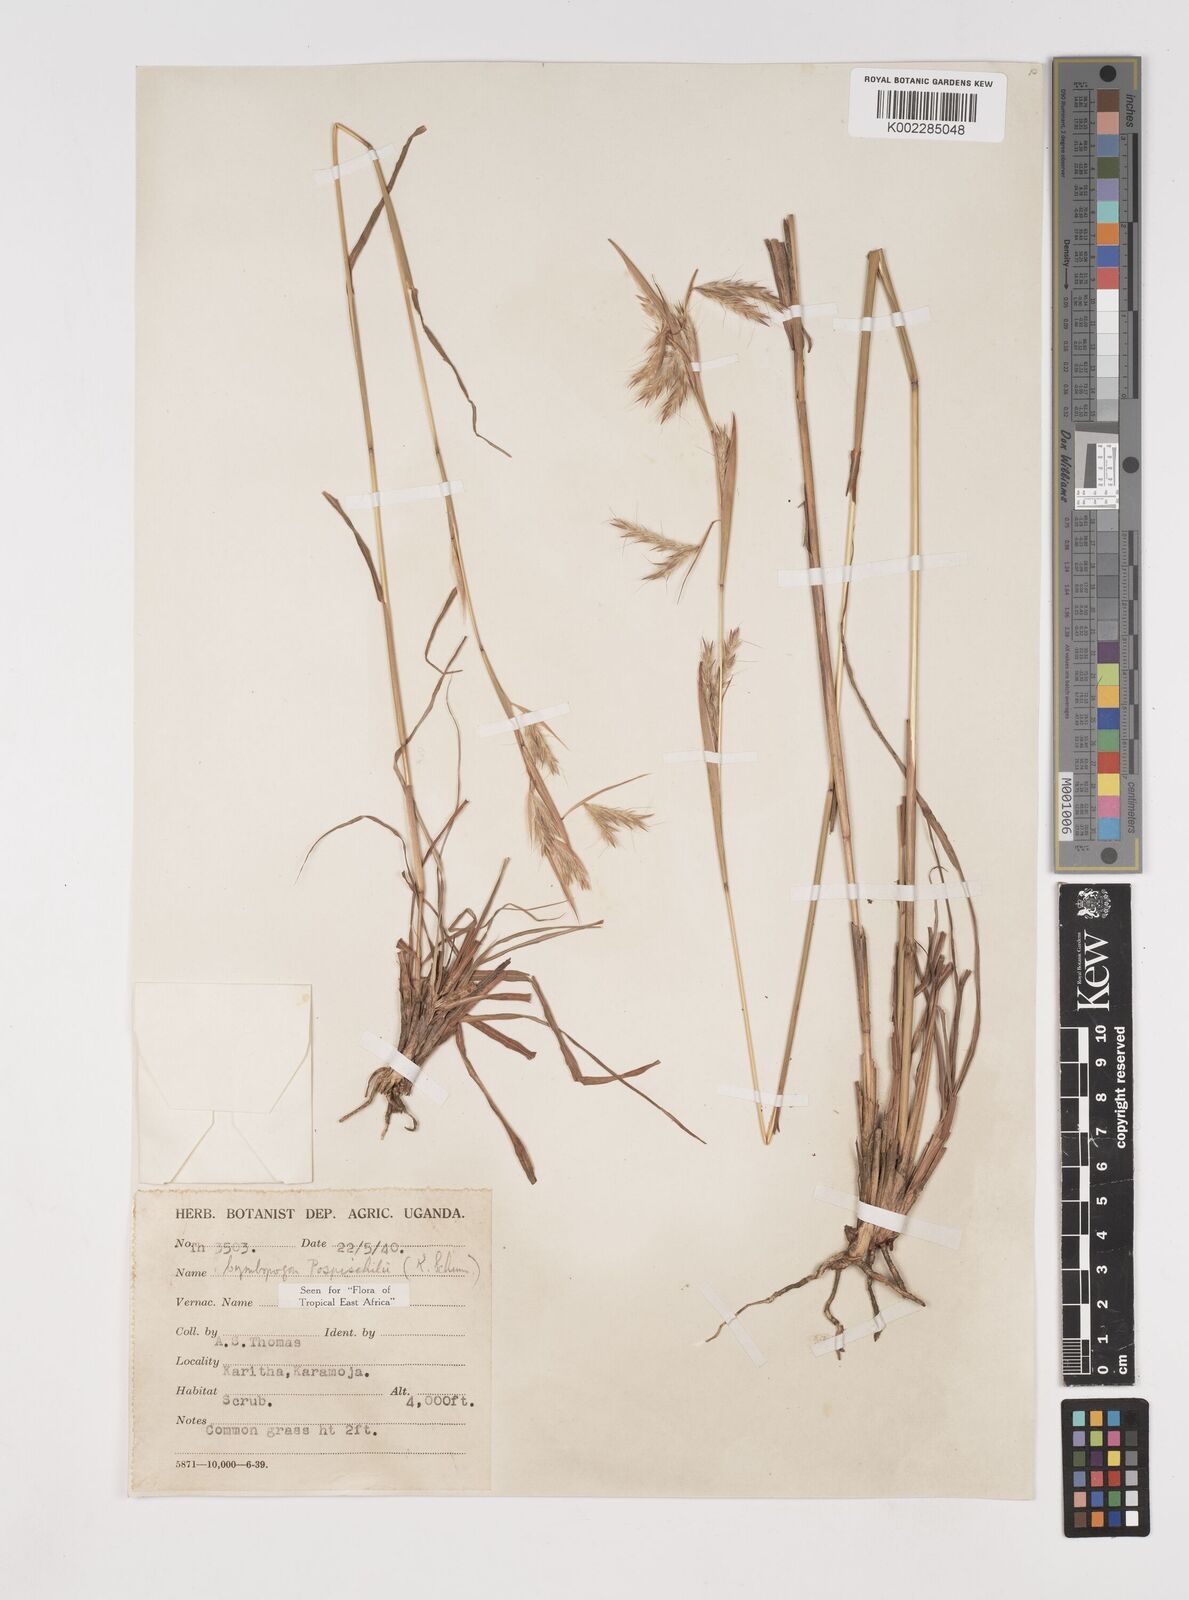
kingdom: Plantae
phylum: Tracheophyta
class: Liliopsida
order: Poales
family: Poaceae
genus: Cymbopogon
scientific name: Cymbopogon pospischilii
